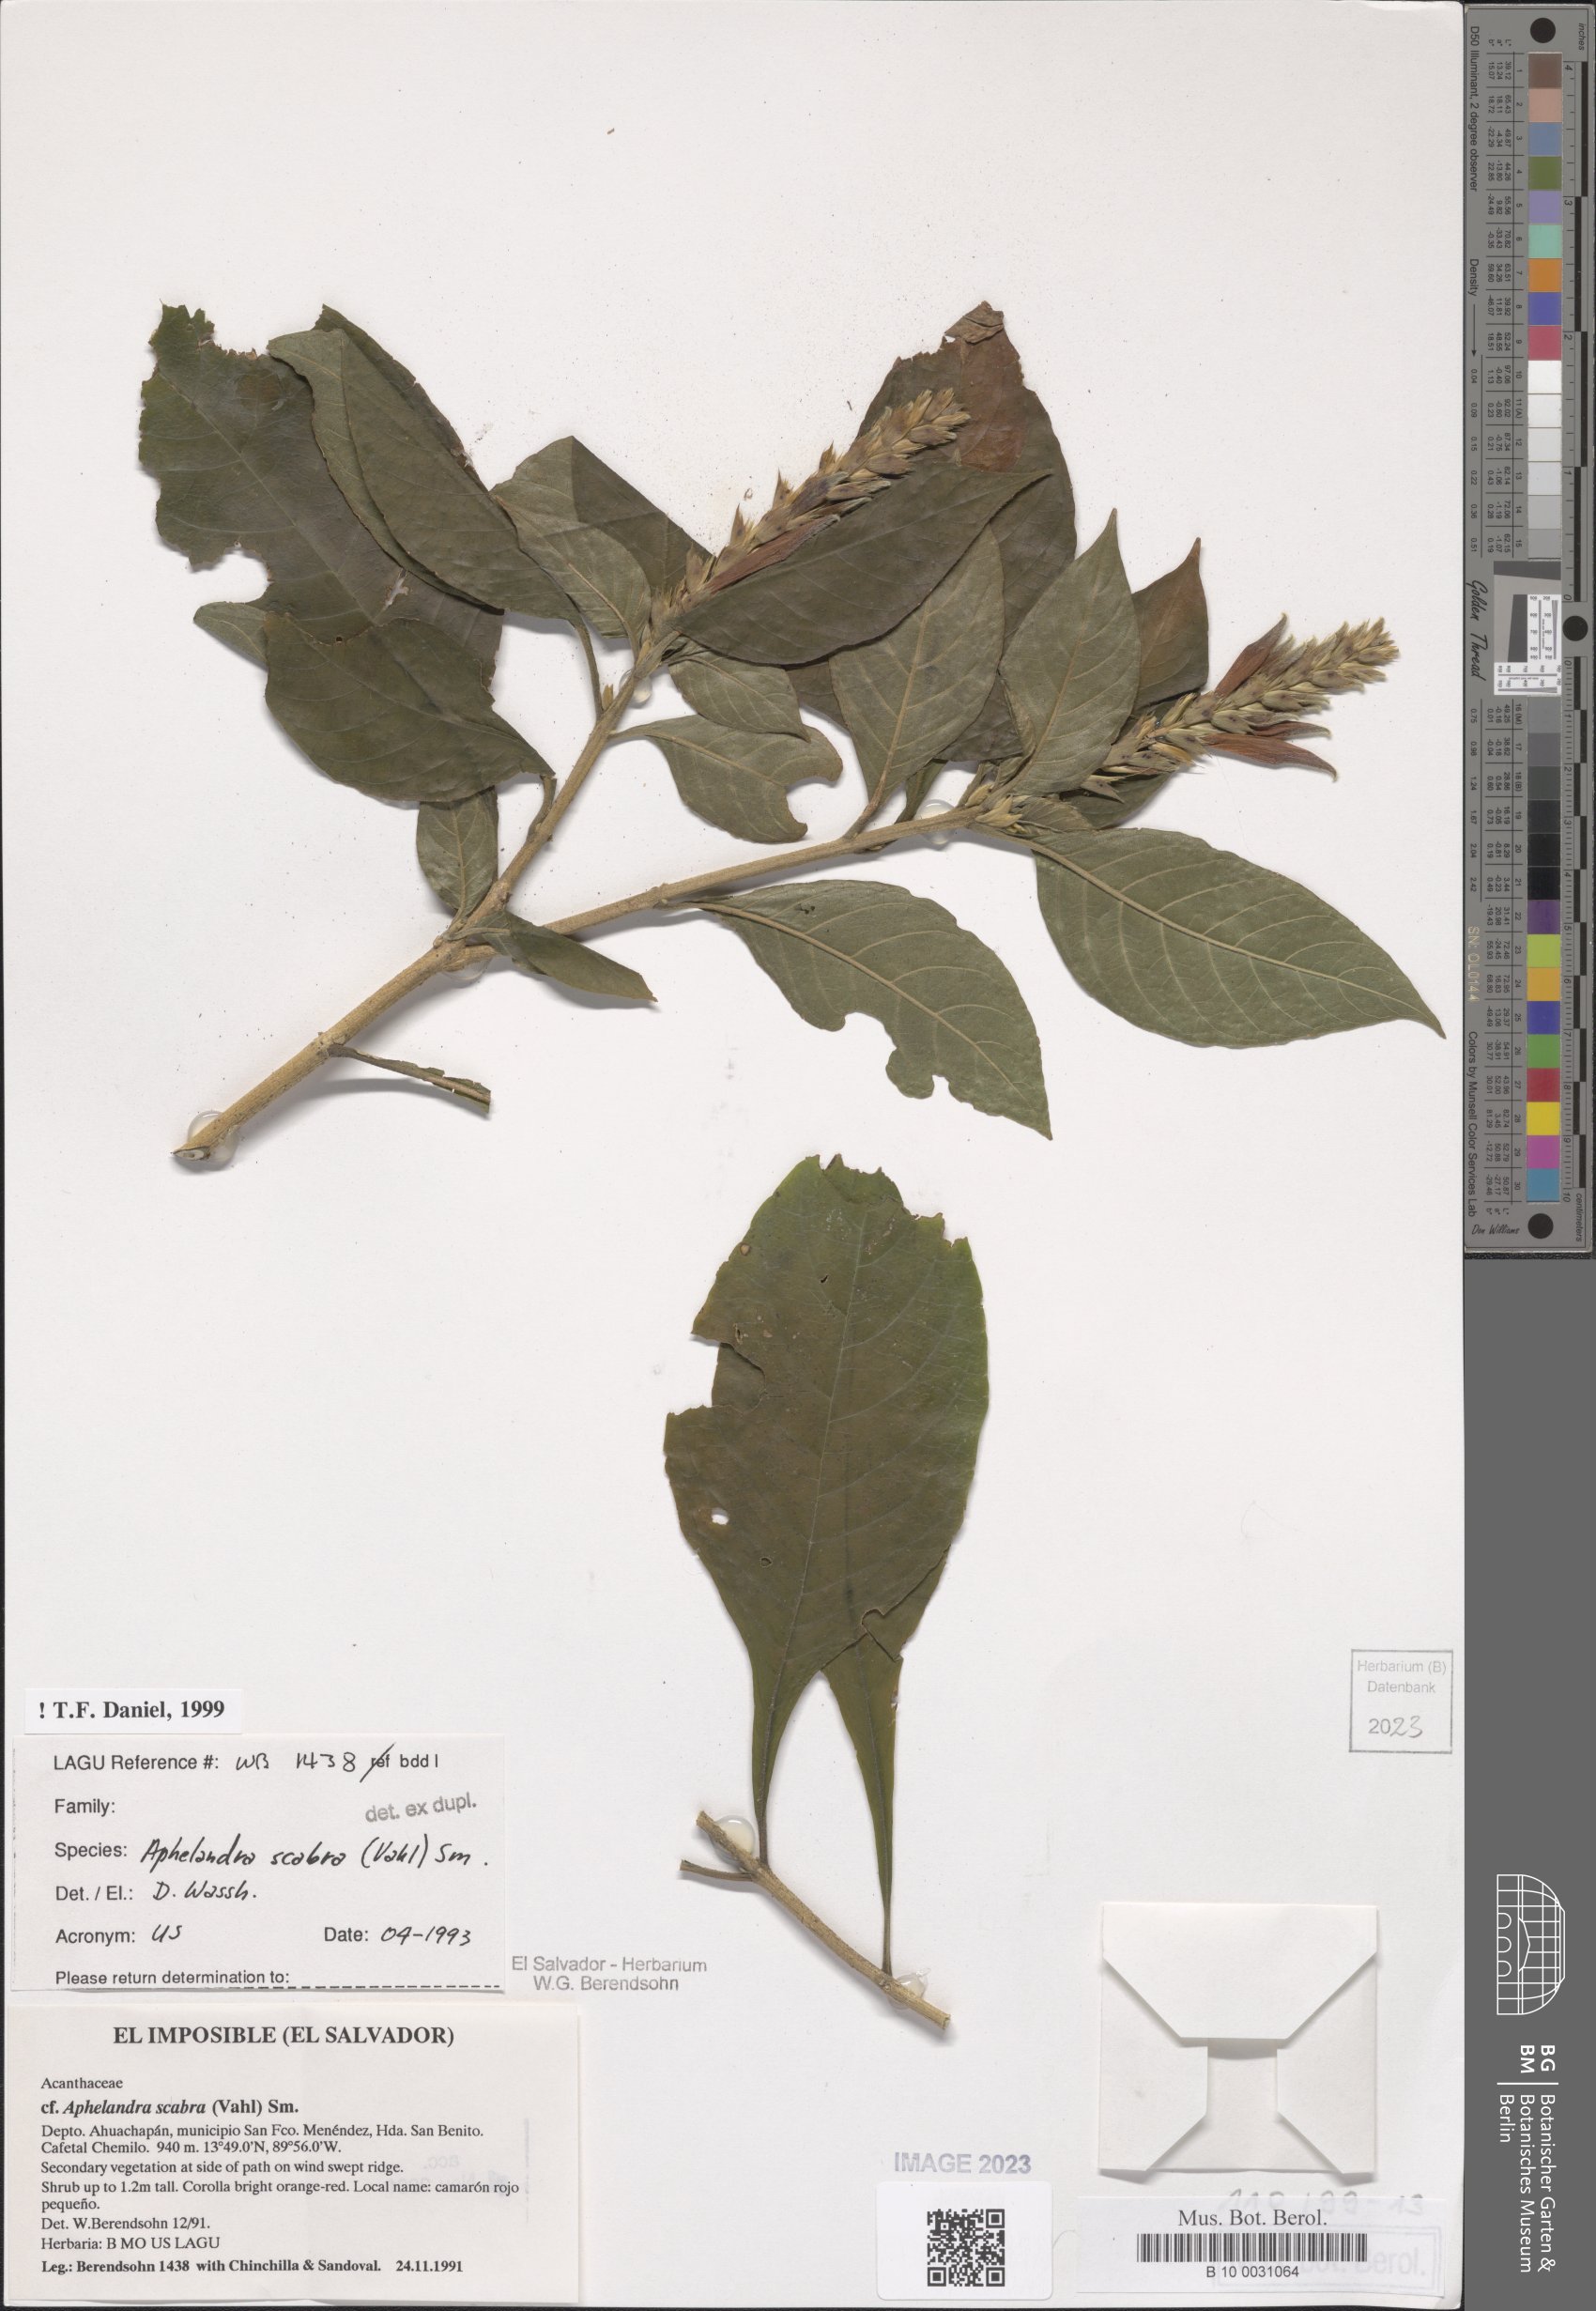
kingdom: Plantae
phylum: Tracheophyta
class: Magnoliopsida
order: Lamiales
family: Acanthaceae
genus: Aphelandra
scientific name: Aphelandra scabra
